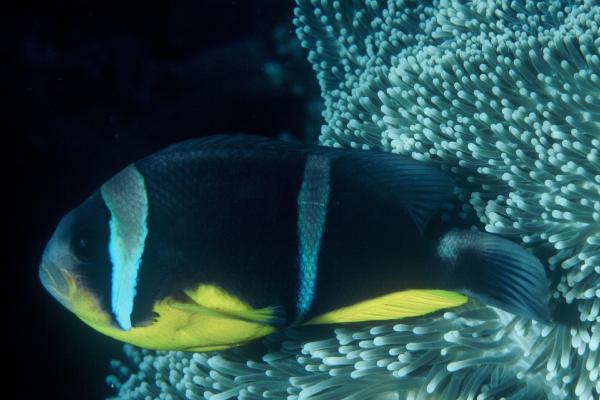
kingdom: Animalia
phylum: Chordata
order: Perciformes
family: Pomacentridae
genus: Amphiprion
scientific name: Amphiprion fuscocaudatus
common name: Seychelles anemonefish
